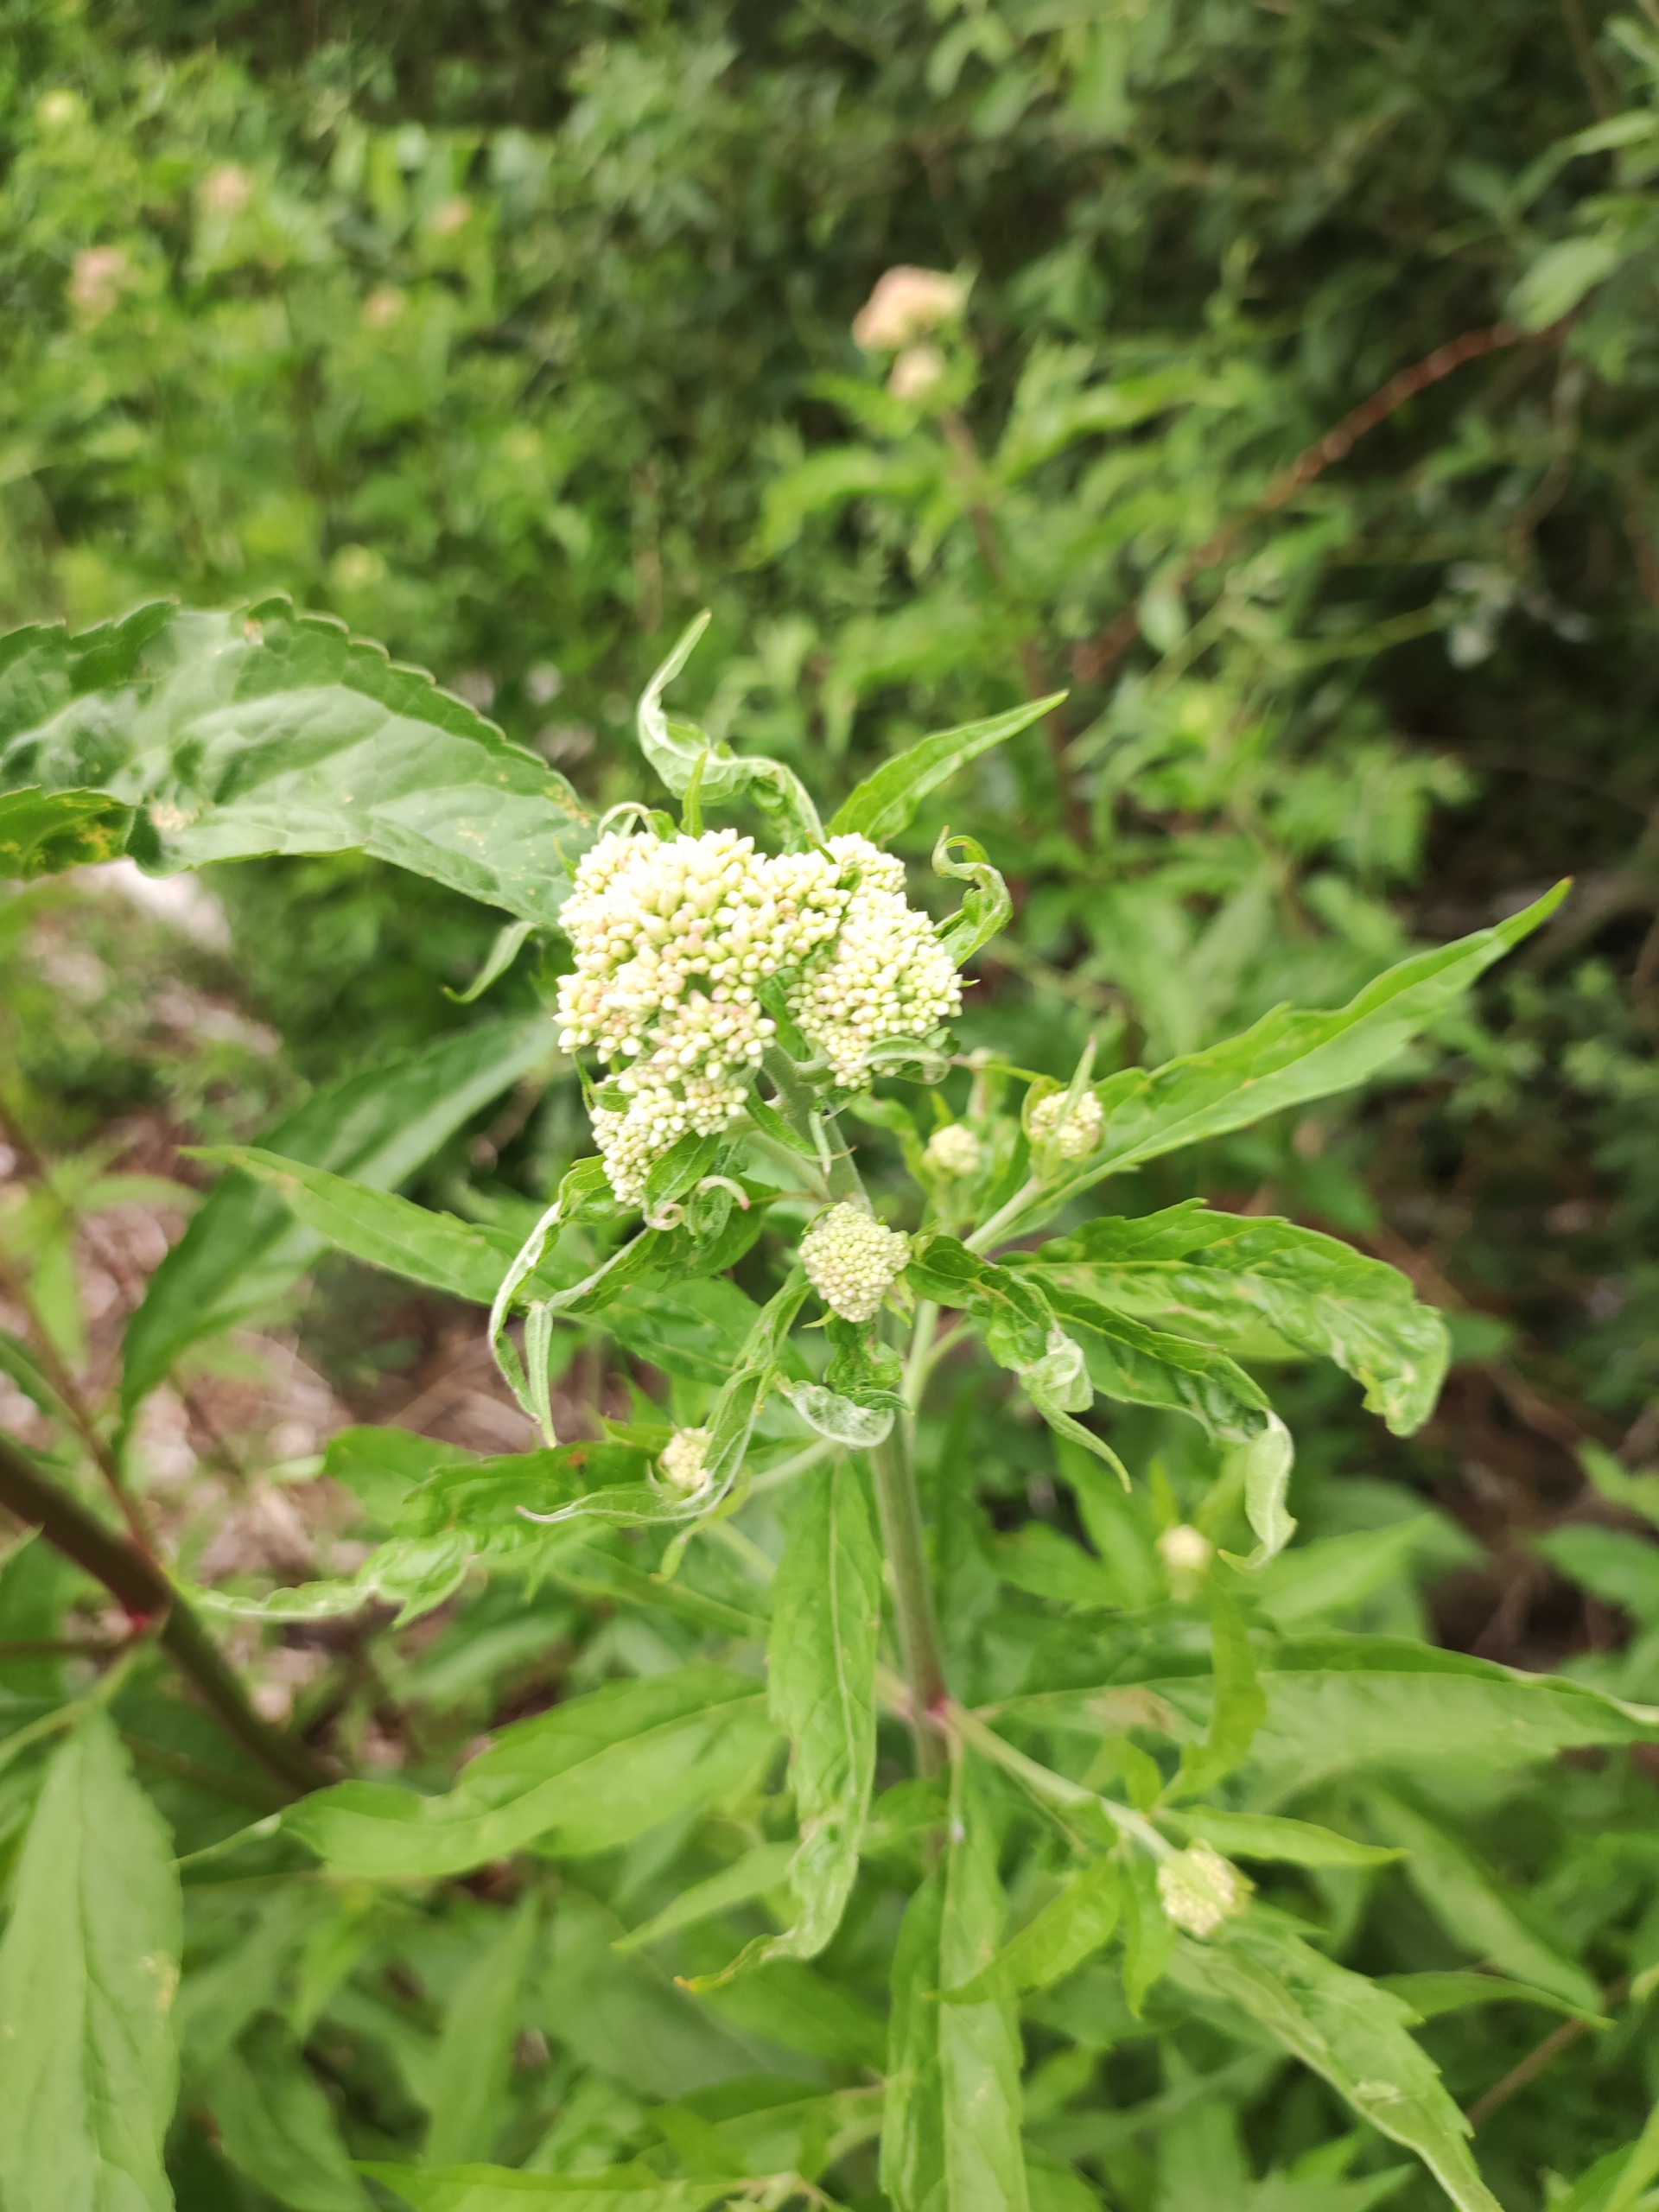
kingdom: Plantae
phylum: Tracheophyta
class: Magnoliopsida
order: Asterales
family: Asteraceae
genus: Eupatorium
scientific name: Eupatorium cannabinum
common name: Hjortetrøst
